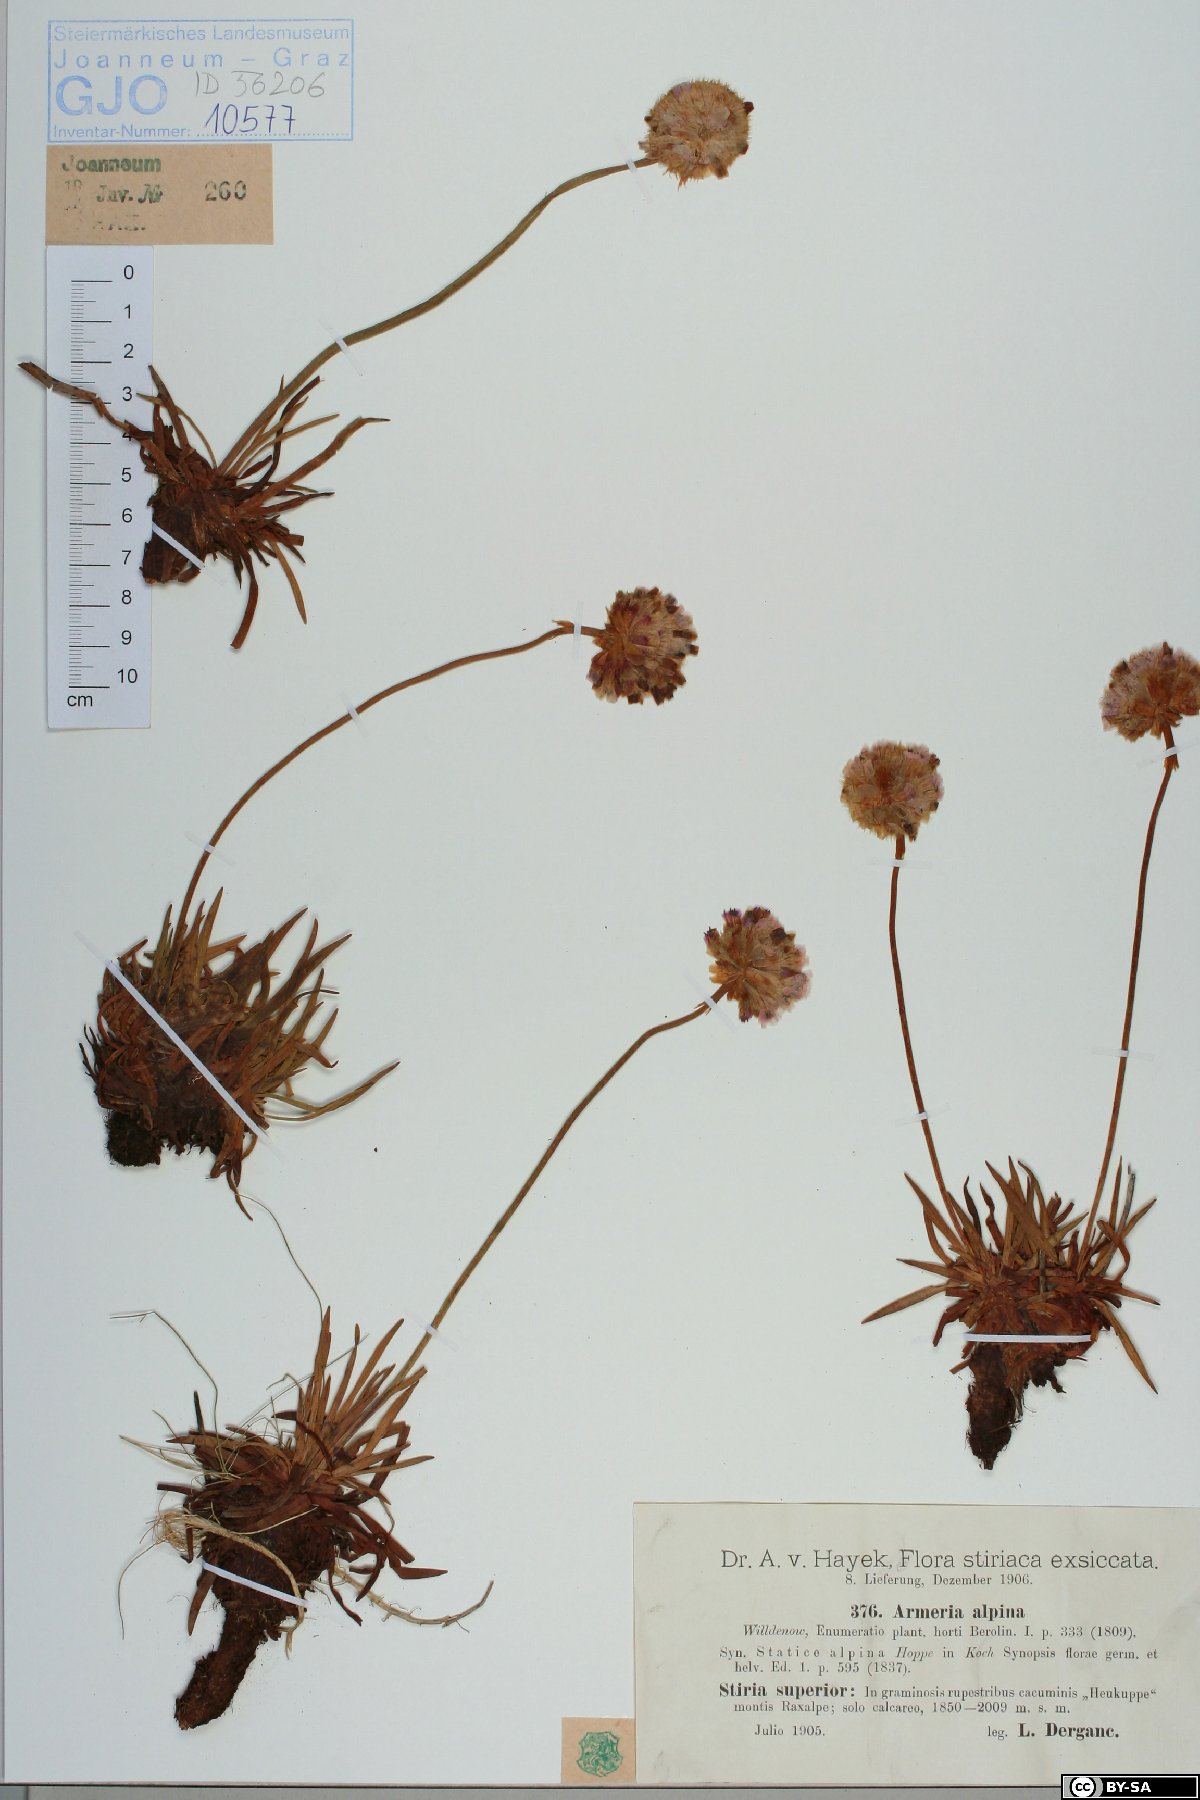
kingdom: Plantae
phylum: Tracheophyta
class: Magnoliopsida
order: Caryophyllales
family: Plumbaginaceae
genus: Armeria
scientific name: Armeria alpina
